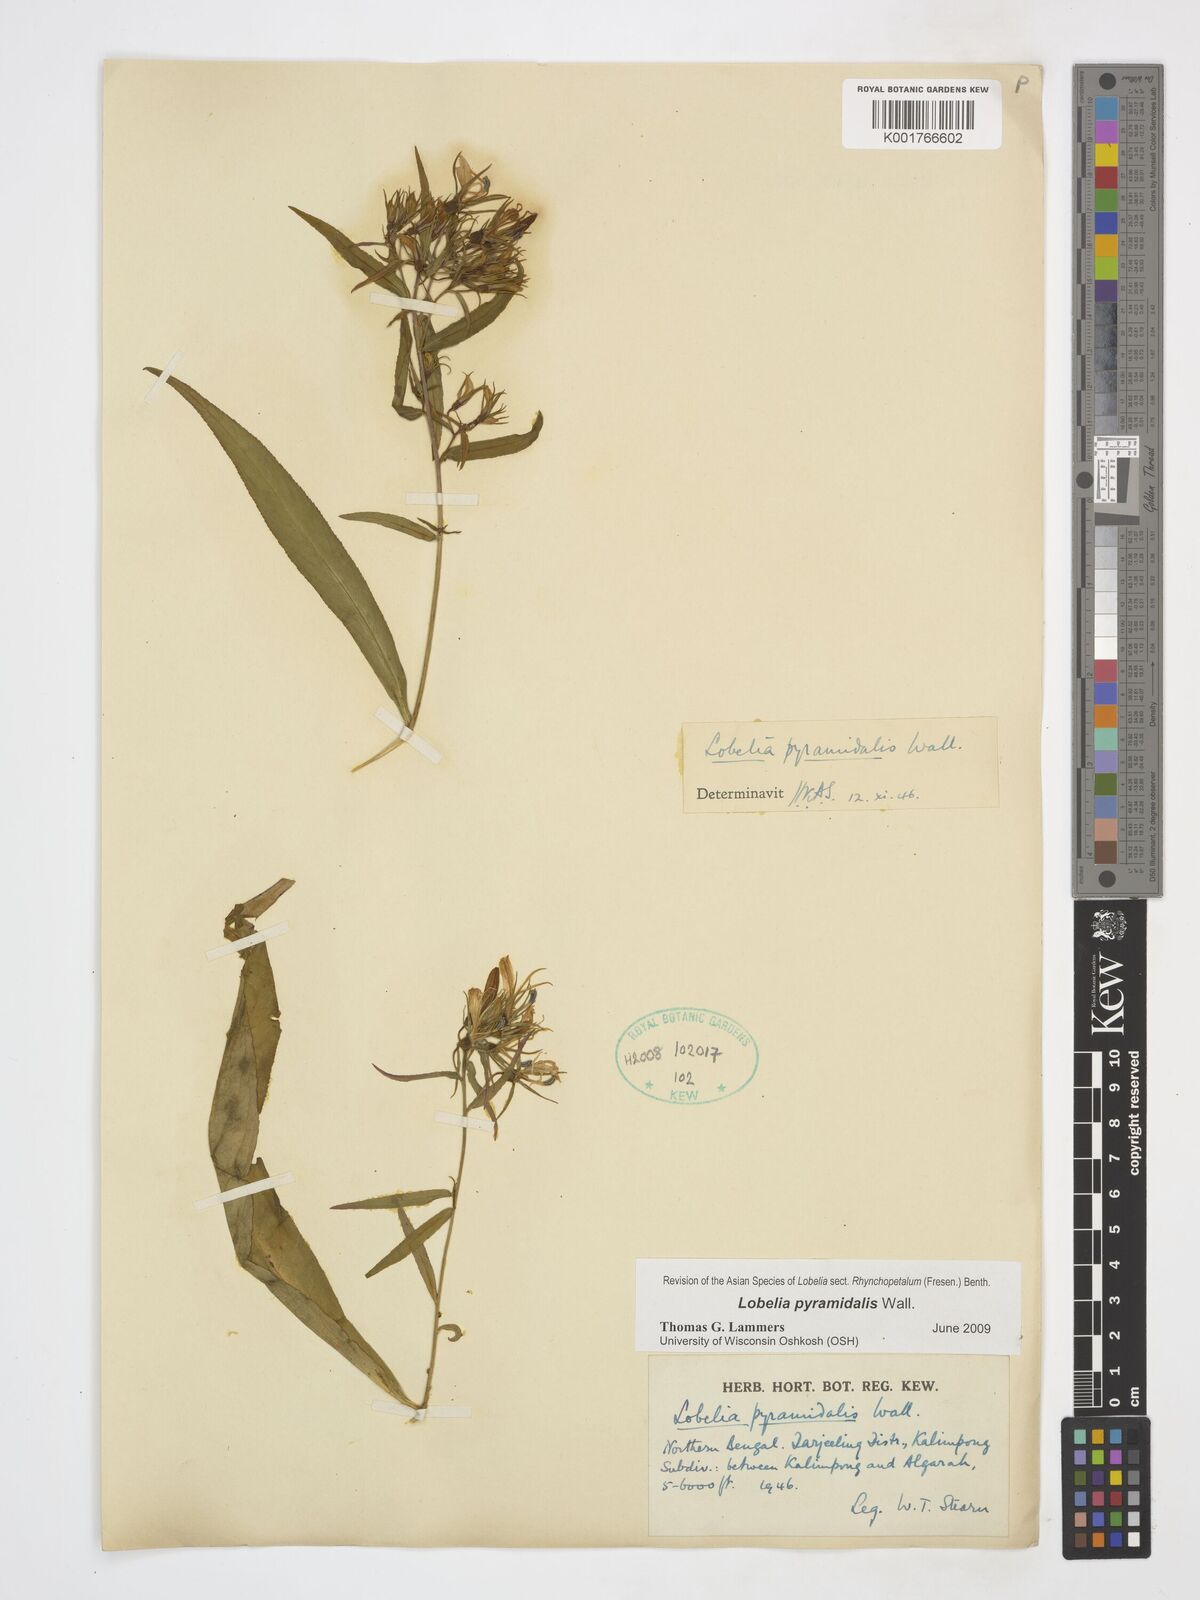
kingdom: Plantae
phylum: Tracheophyta
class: Magnoliopsida
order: Asterales
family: Campanulaceae
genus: Lobelia
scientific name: Lobelia pyramidalis
